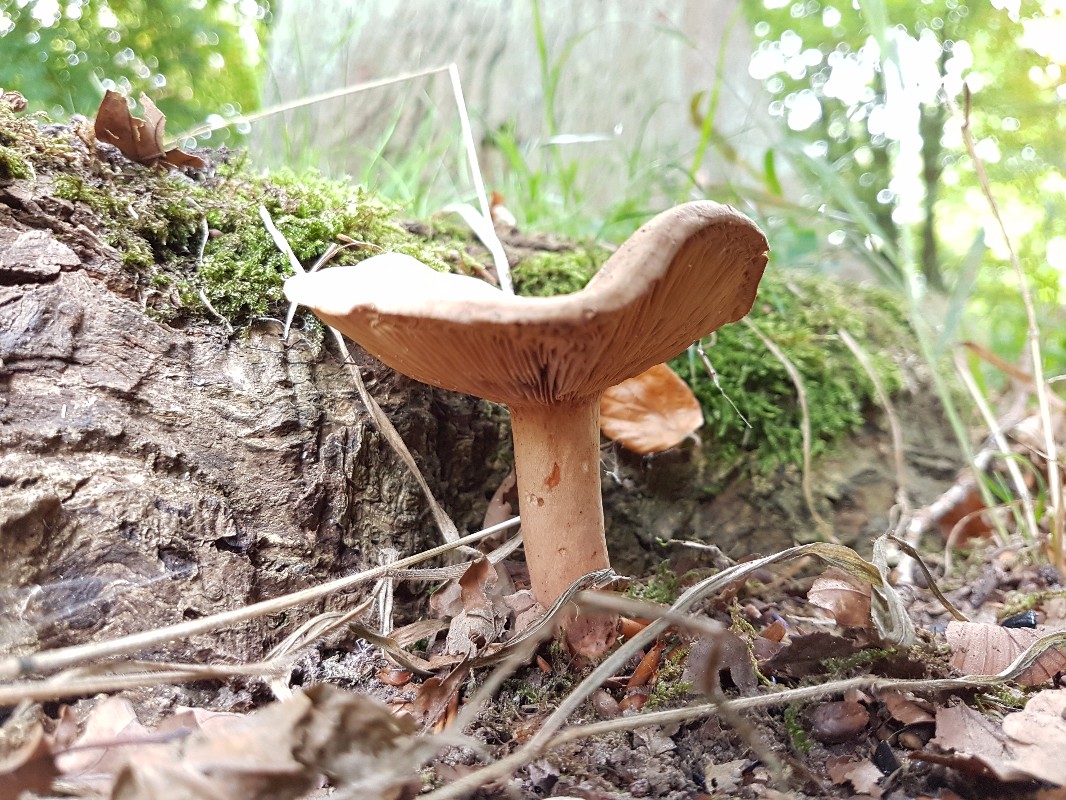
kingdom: Fungi
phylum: Basidiomycota
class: Agaricomycetes
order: Russulales
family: Russulaceae
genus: Lactarius
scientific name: Lactarius
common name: mælkehat
